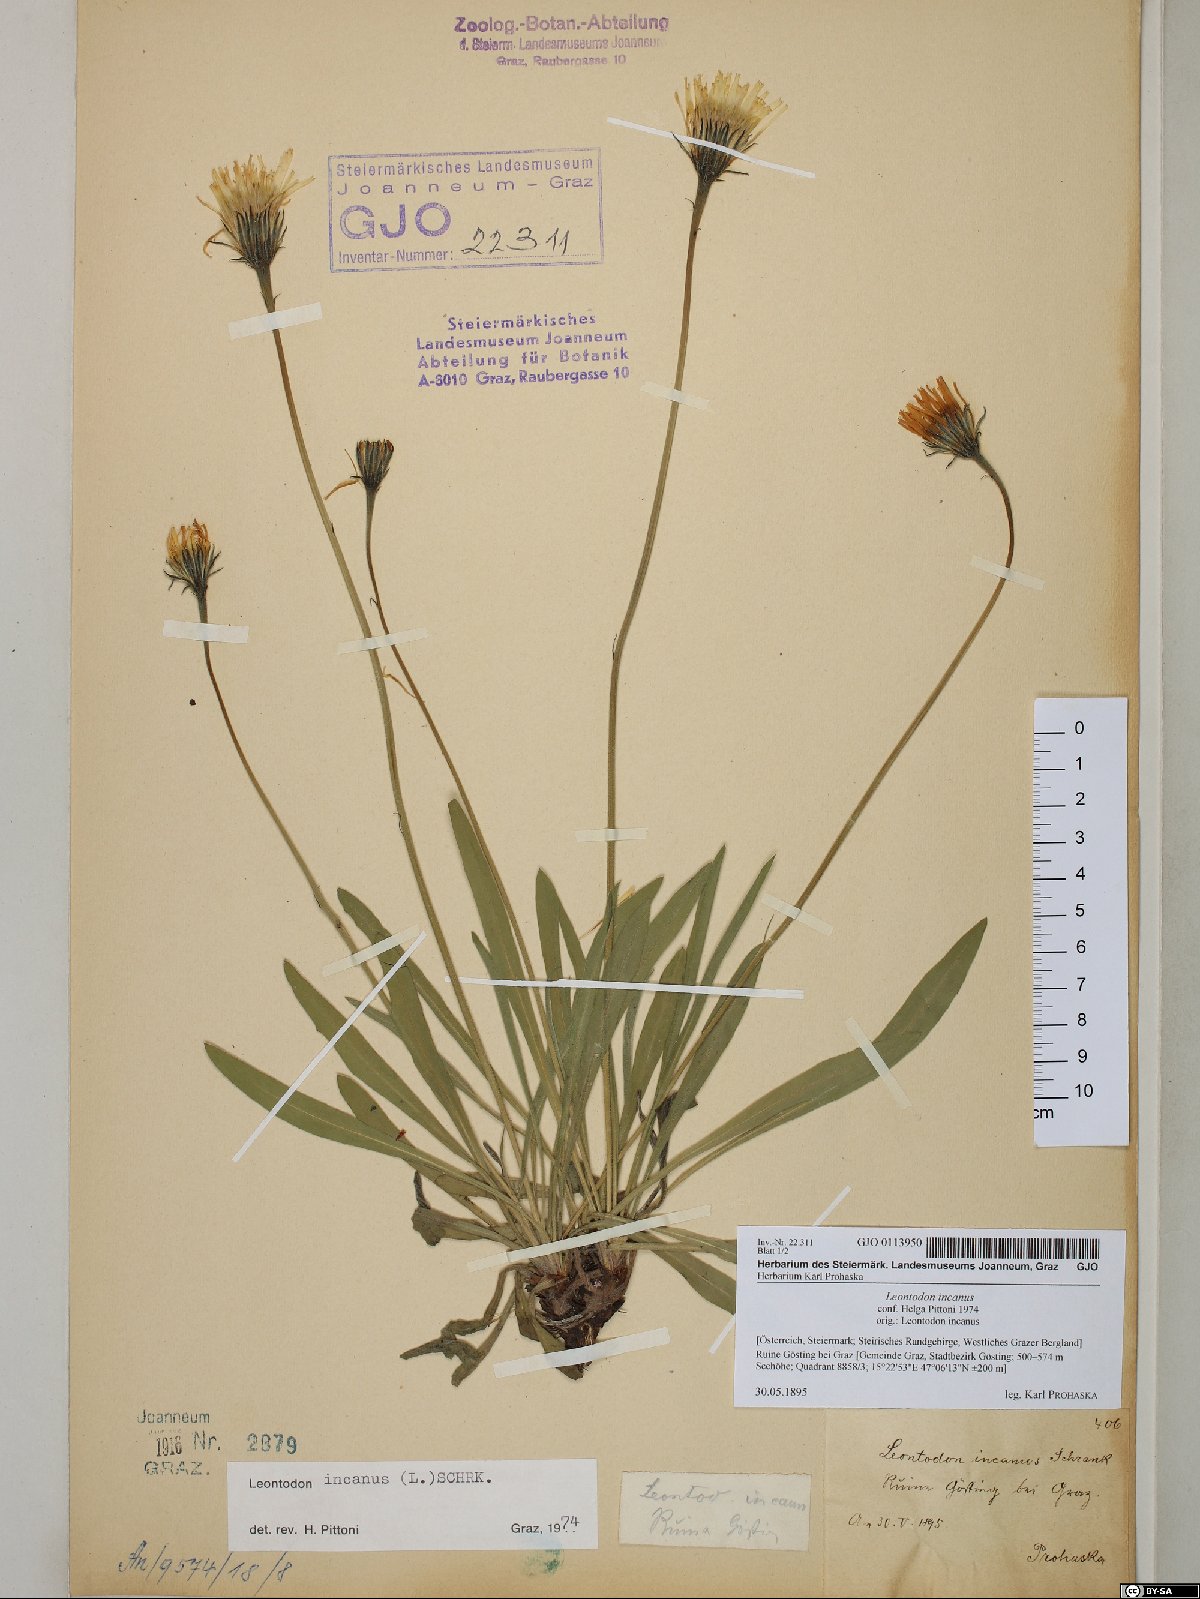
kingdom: Plantae
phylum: Tracheophyta
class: Magnoliopsida
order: Asterales
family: Asteraceae
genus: Leontodon
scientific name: Leontodon incanus
